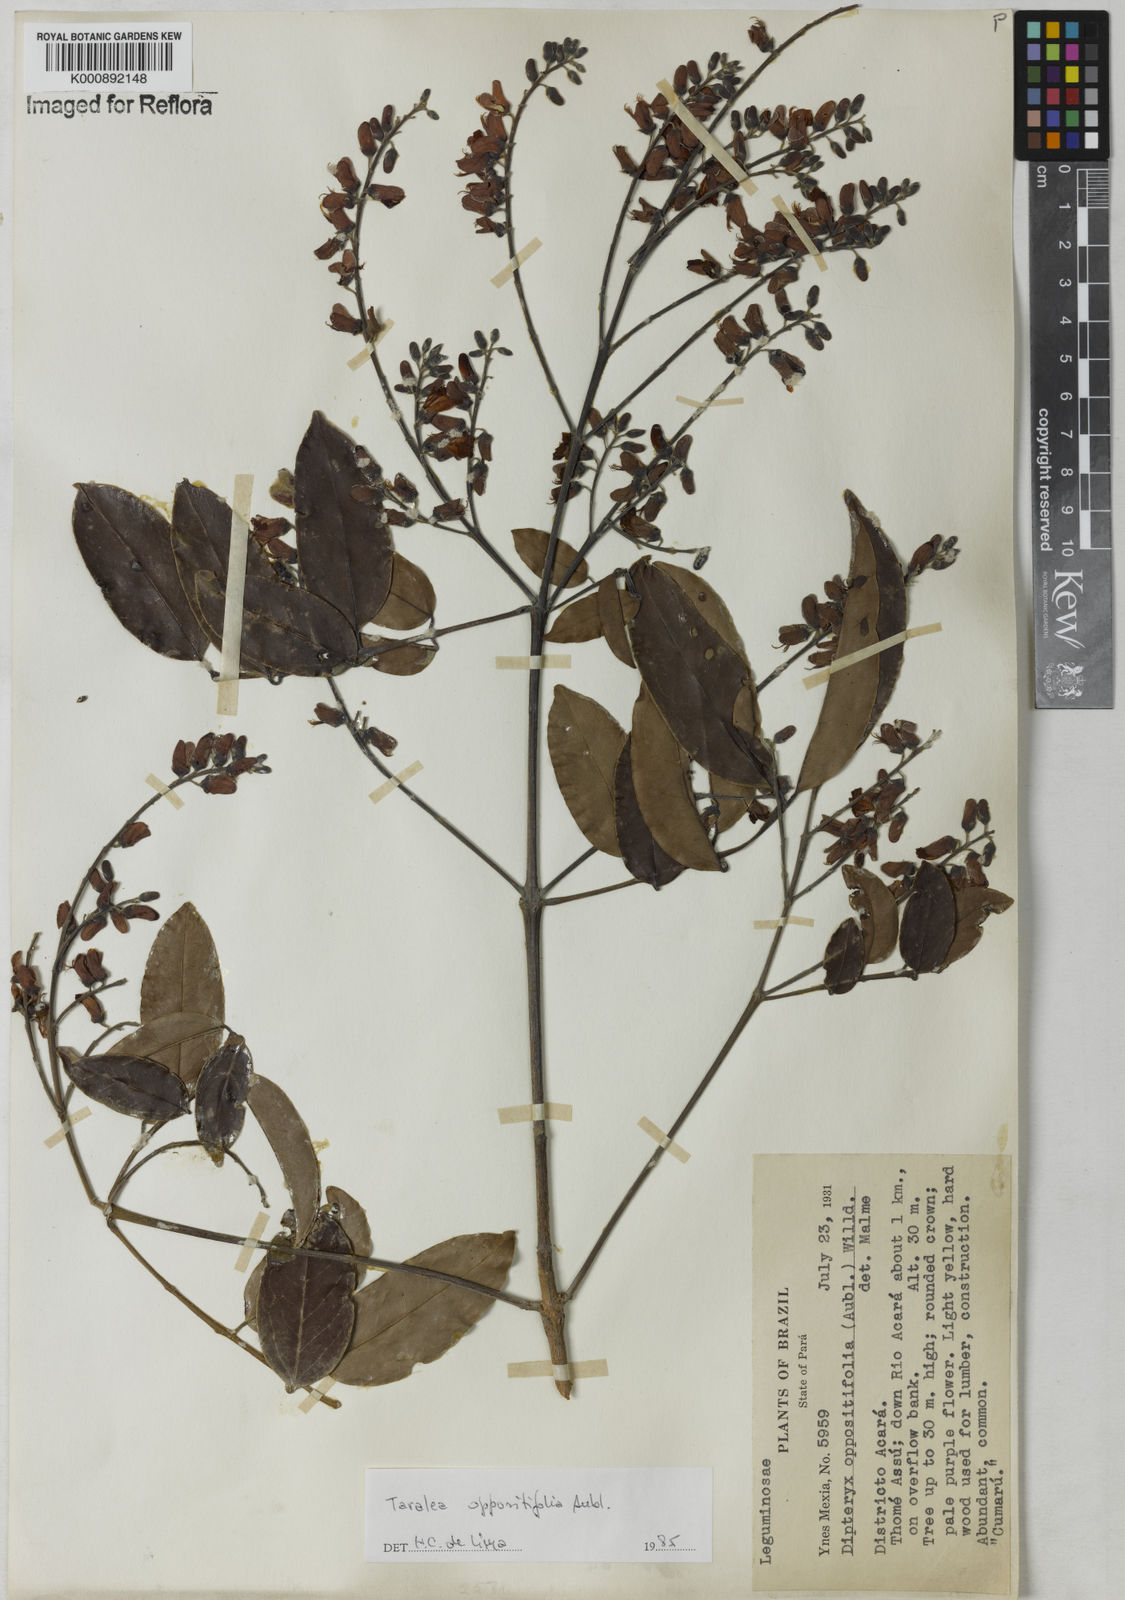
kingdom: Plantae
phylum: Tracheophyta
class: Magnoliopsida
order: Fabales
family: Fabaceae
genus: Taralea
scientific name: Taralea oppositifolia
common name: Tonka
